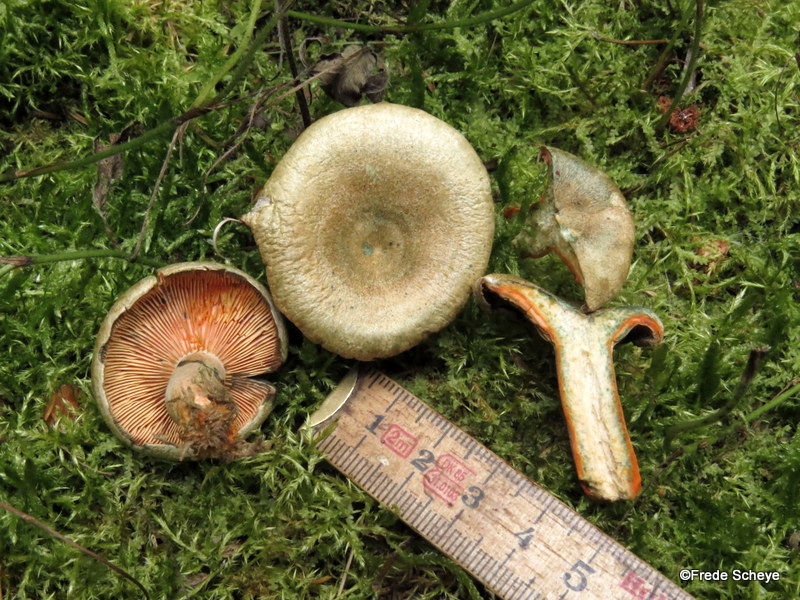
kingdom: Fungi
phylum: Basidiomycota
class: Agaricomycetes
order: Russulales
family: Russulaceae
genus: Lactarius
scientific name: Lactarius deterrimus
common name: gran-mælkehat
